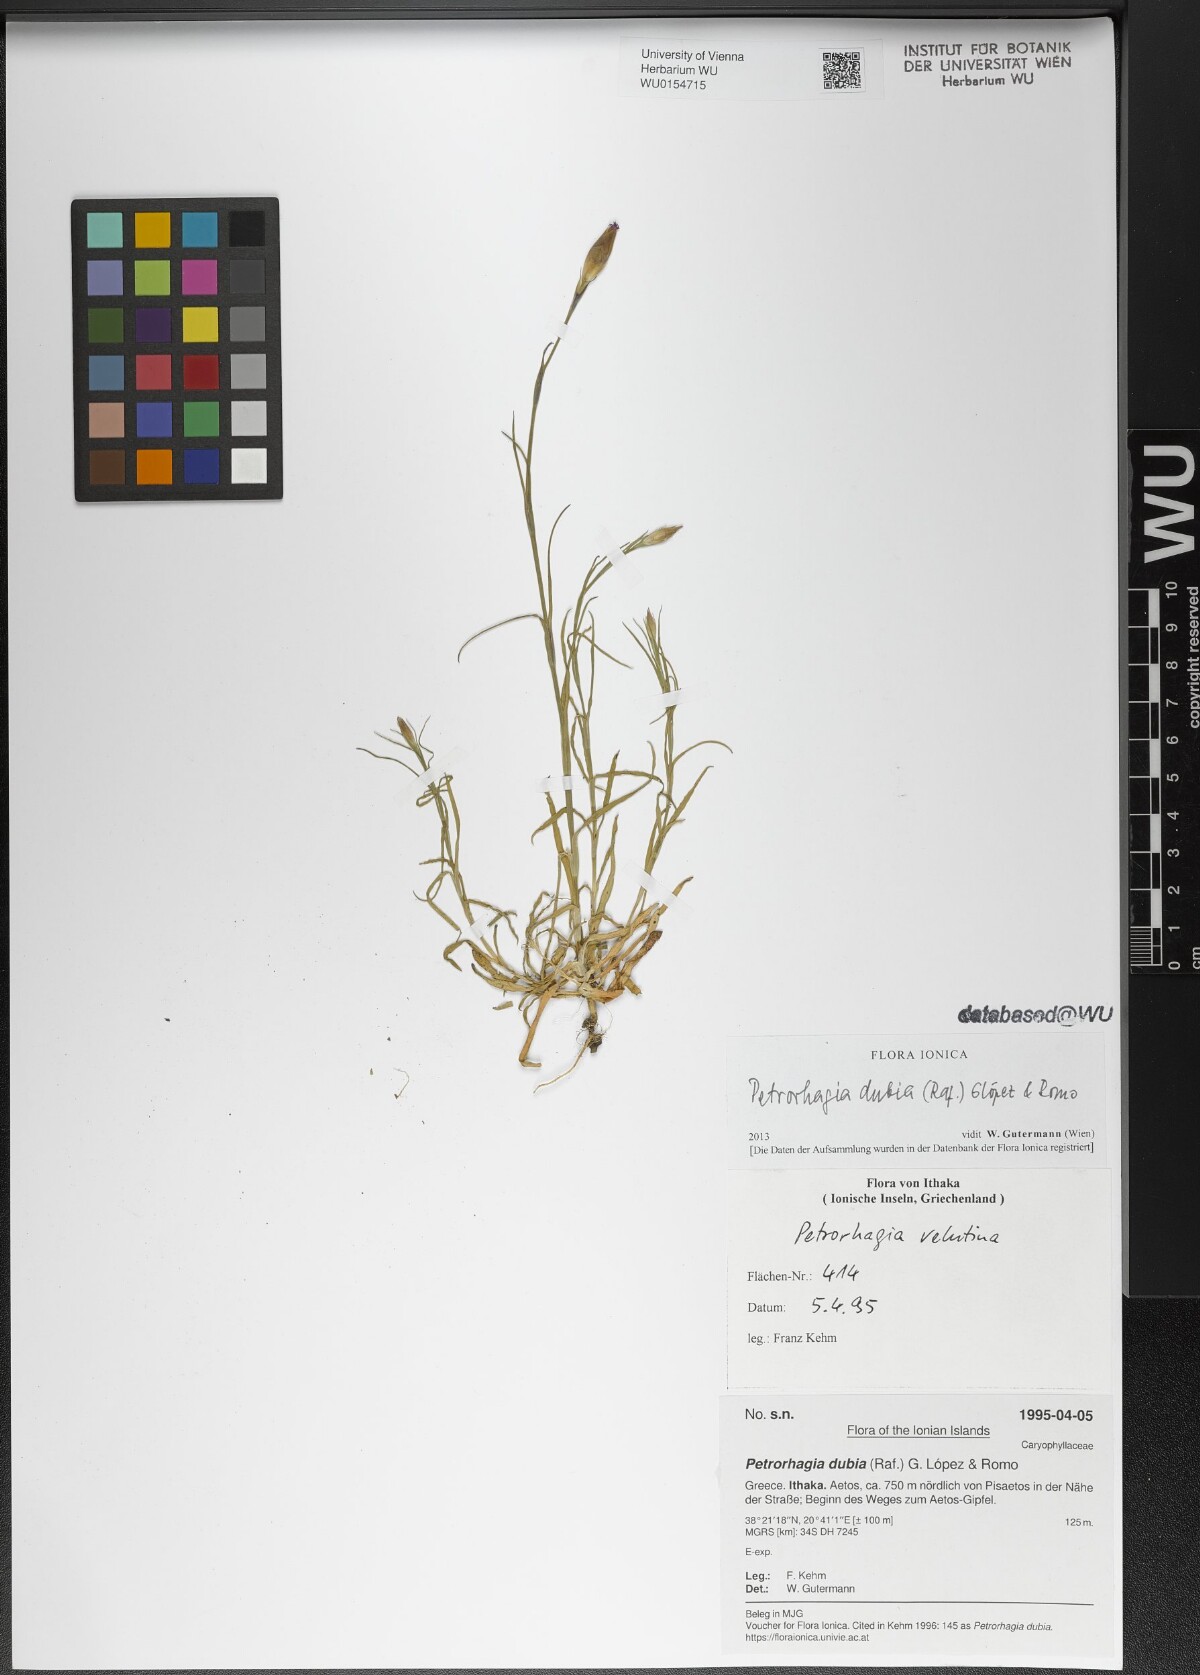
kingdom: Plantae
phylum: Tracheophyta
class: Magnoliopsida
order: Caryophyllales
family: Caryophyllaceae
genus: Petrorhagia
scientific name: Petrorhagia dubia
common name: Hairypink
